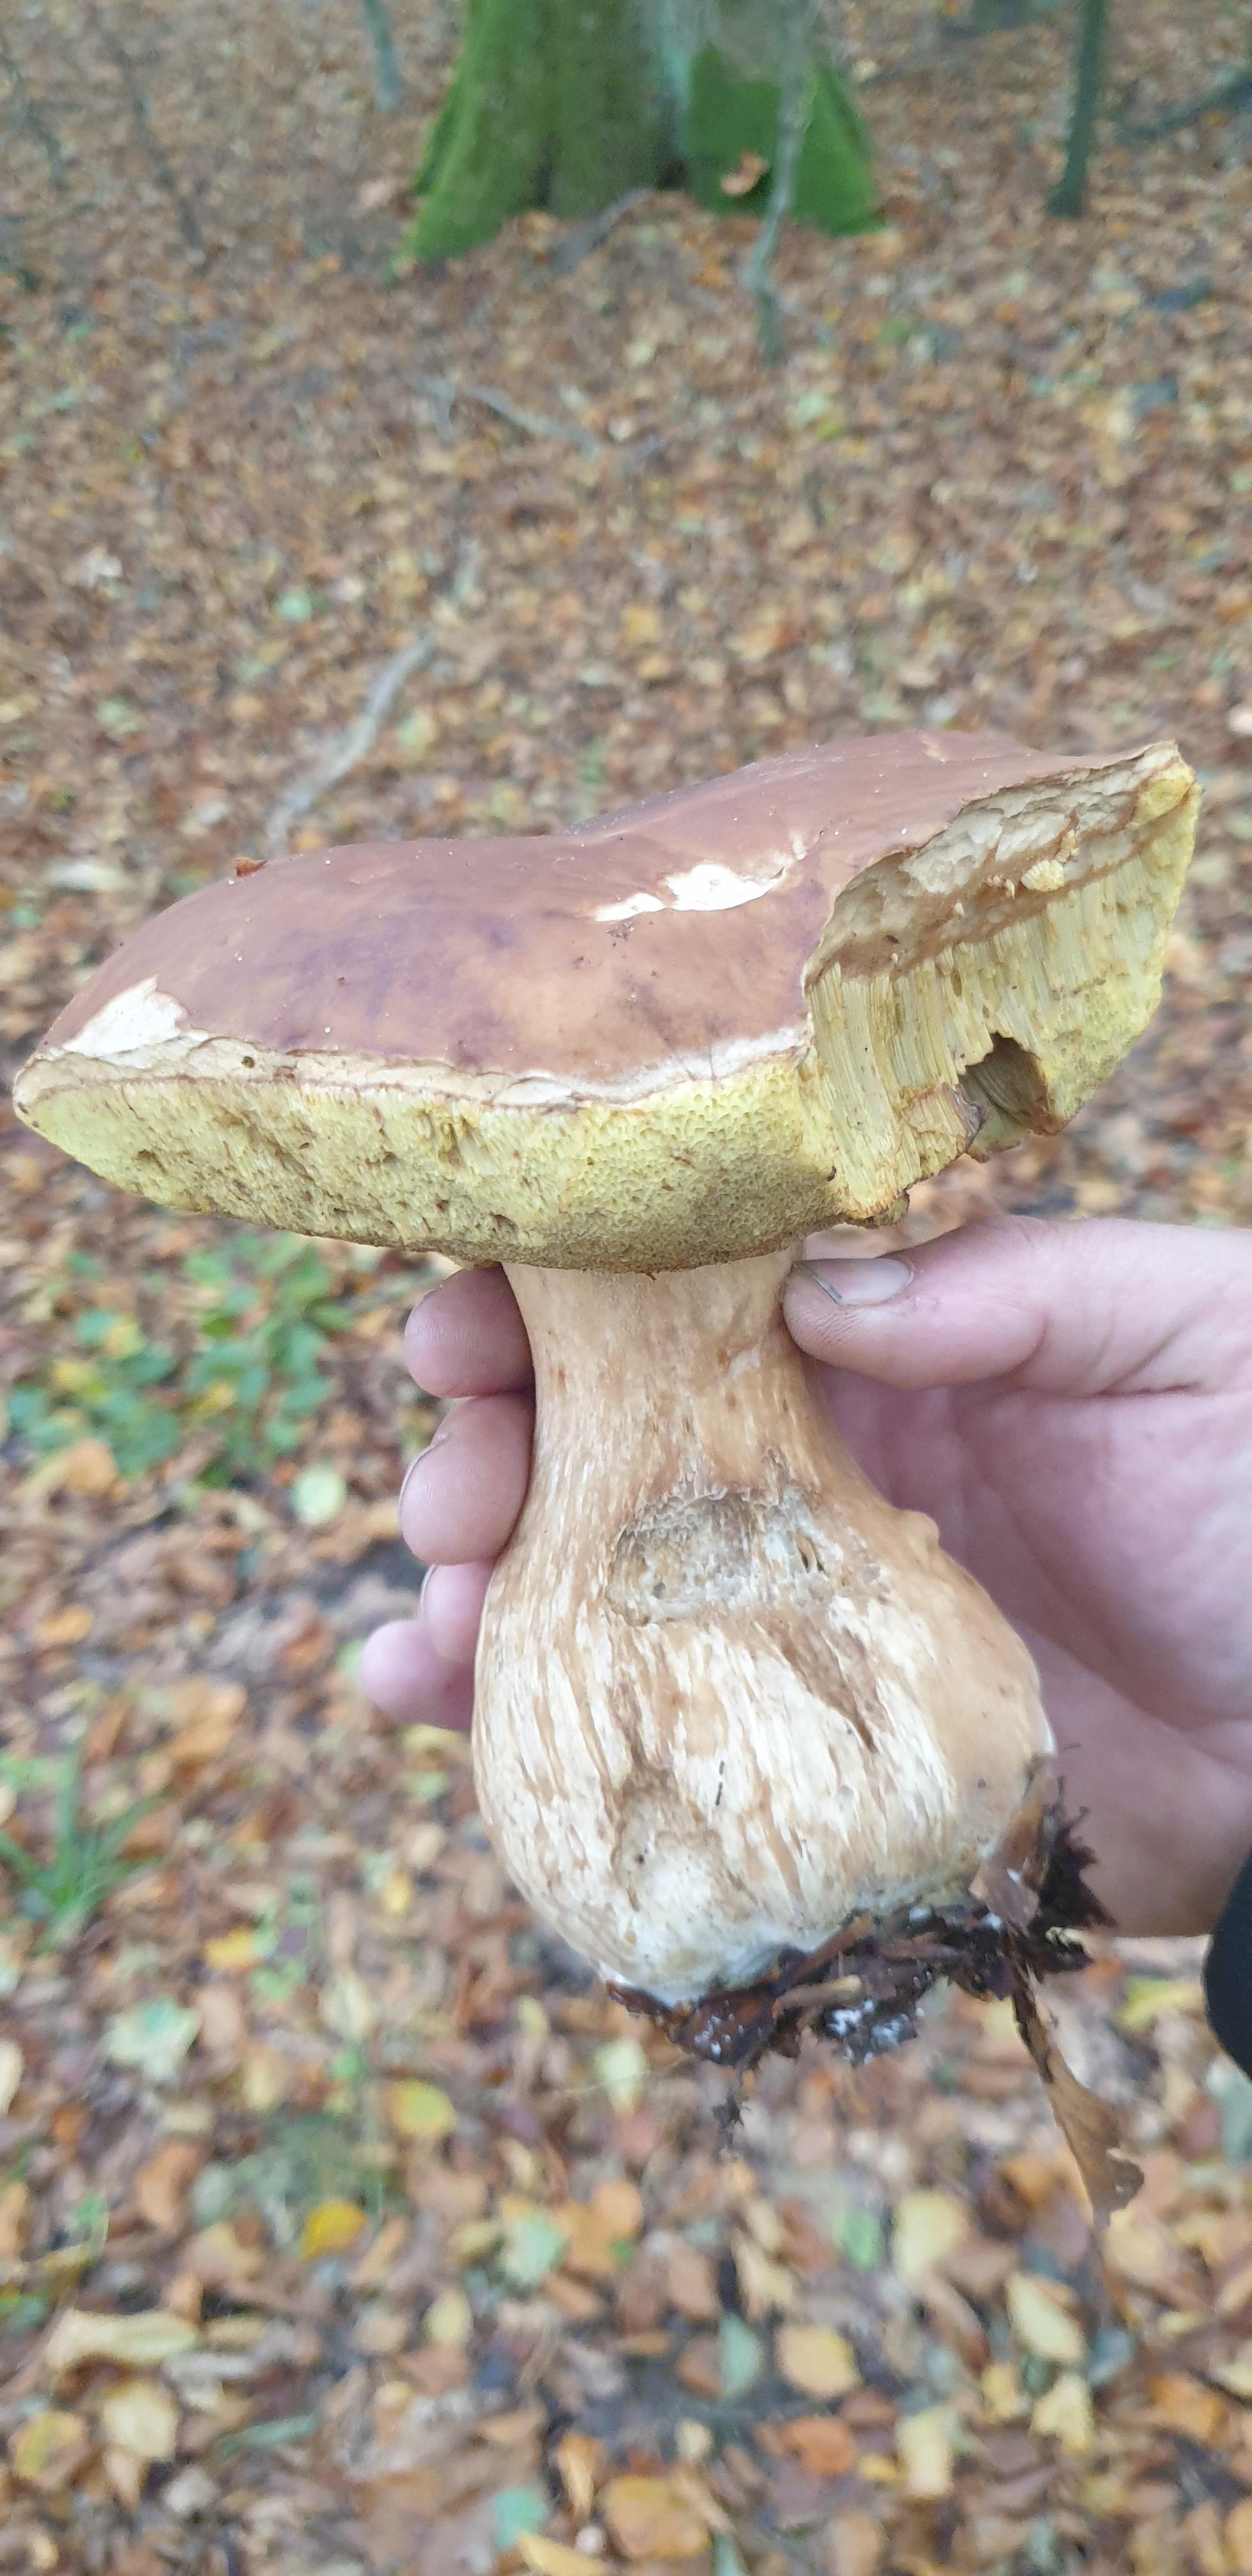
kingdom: Fungi
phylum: Basidiomycota
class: Agaricomycetes
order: Boletales
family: Boletaceae
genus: Boletus
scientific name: Boletus edulis
